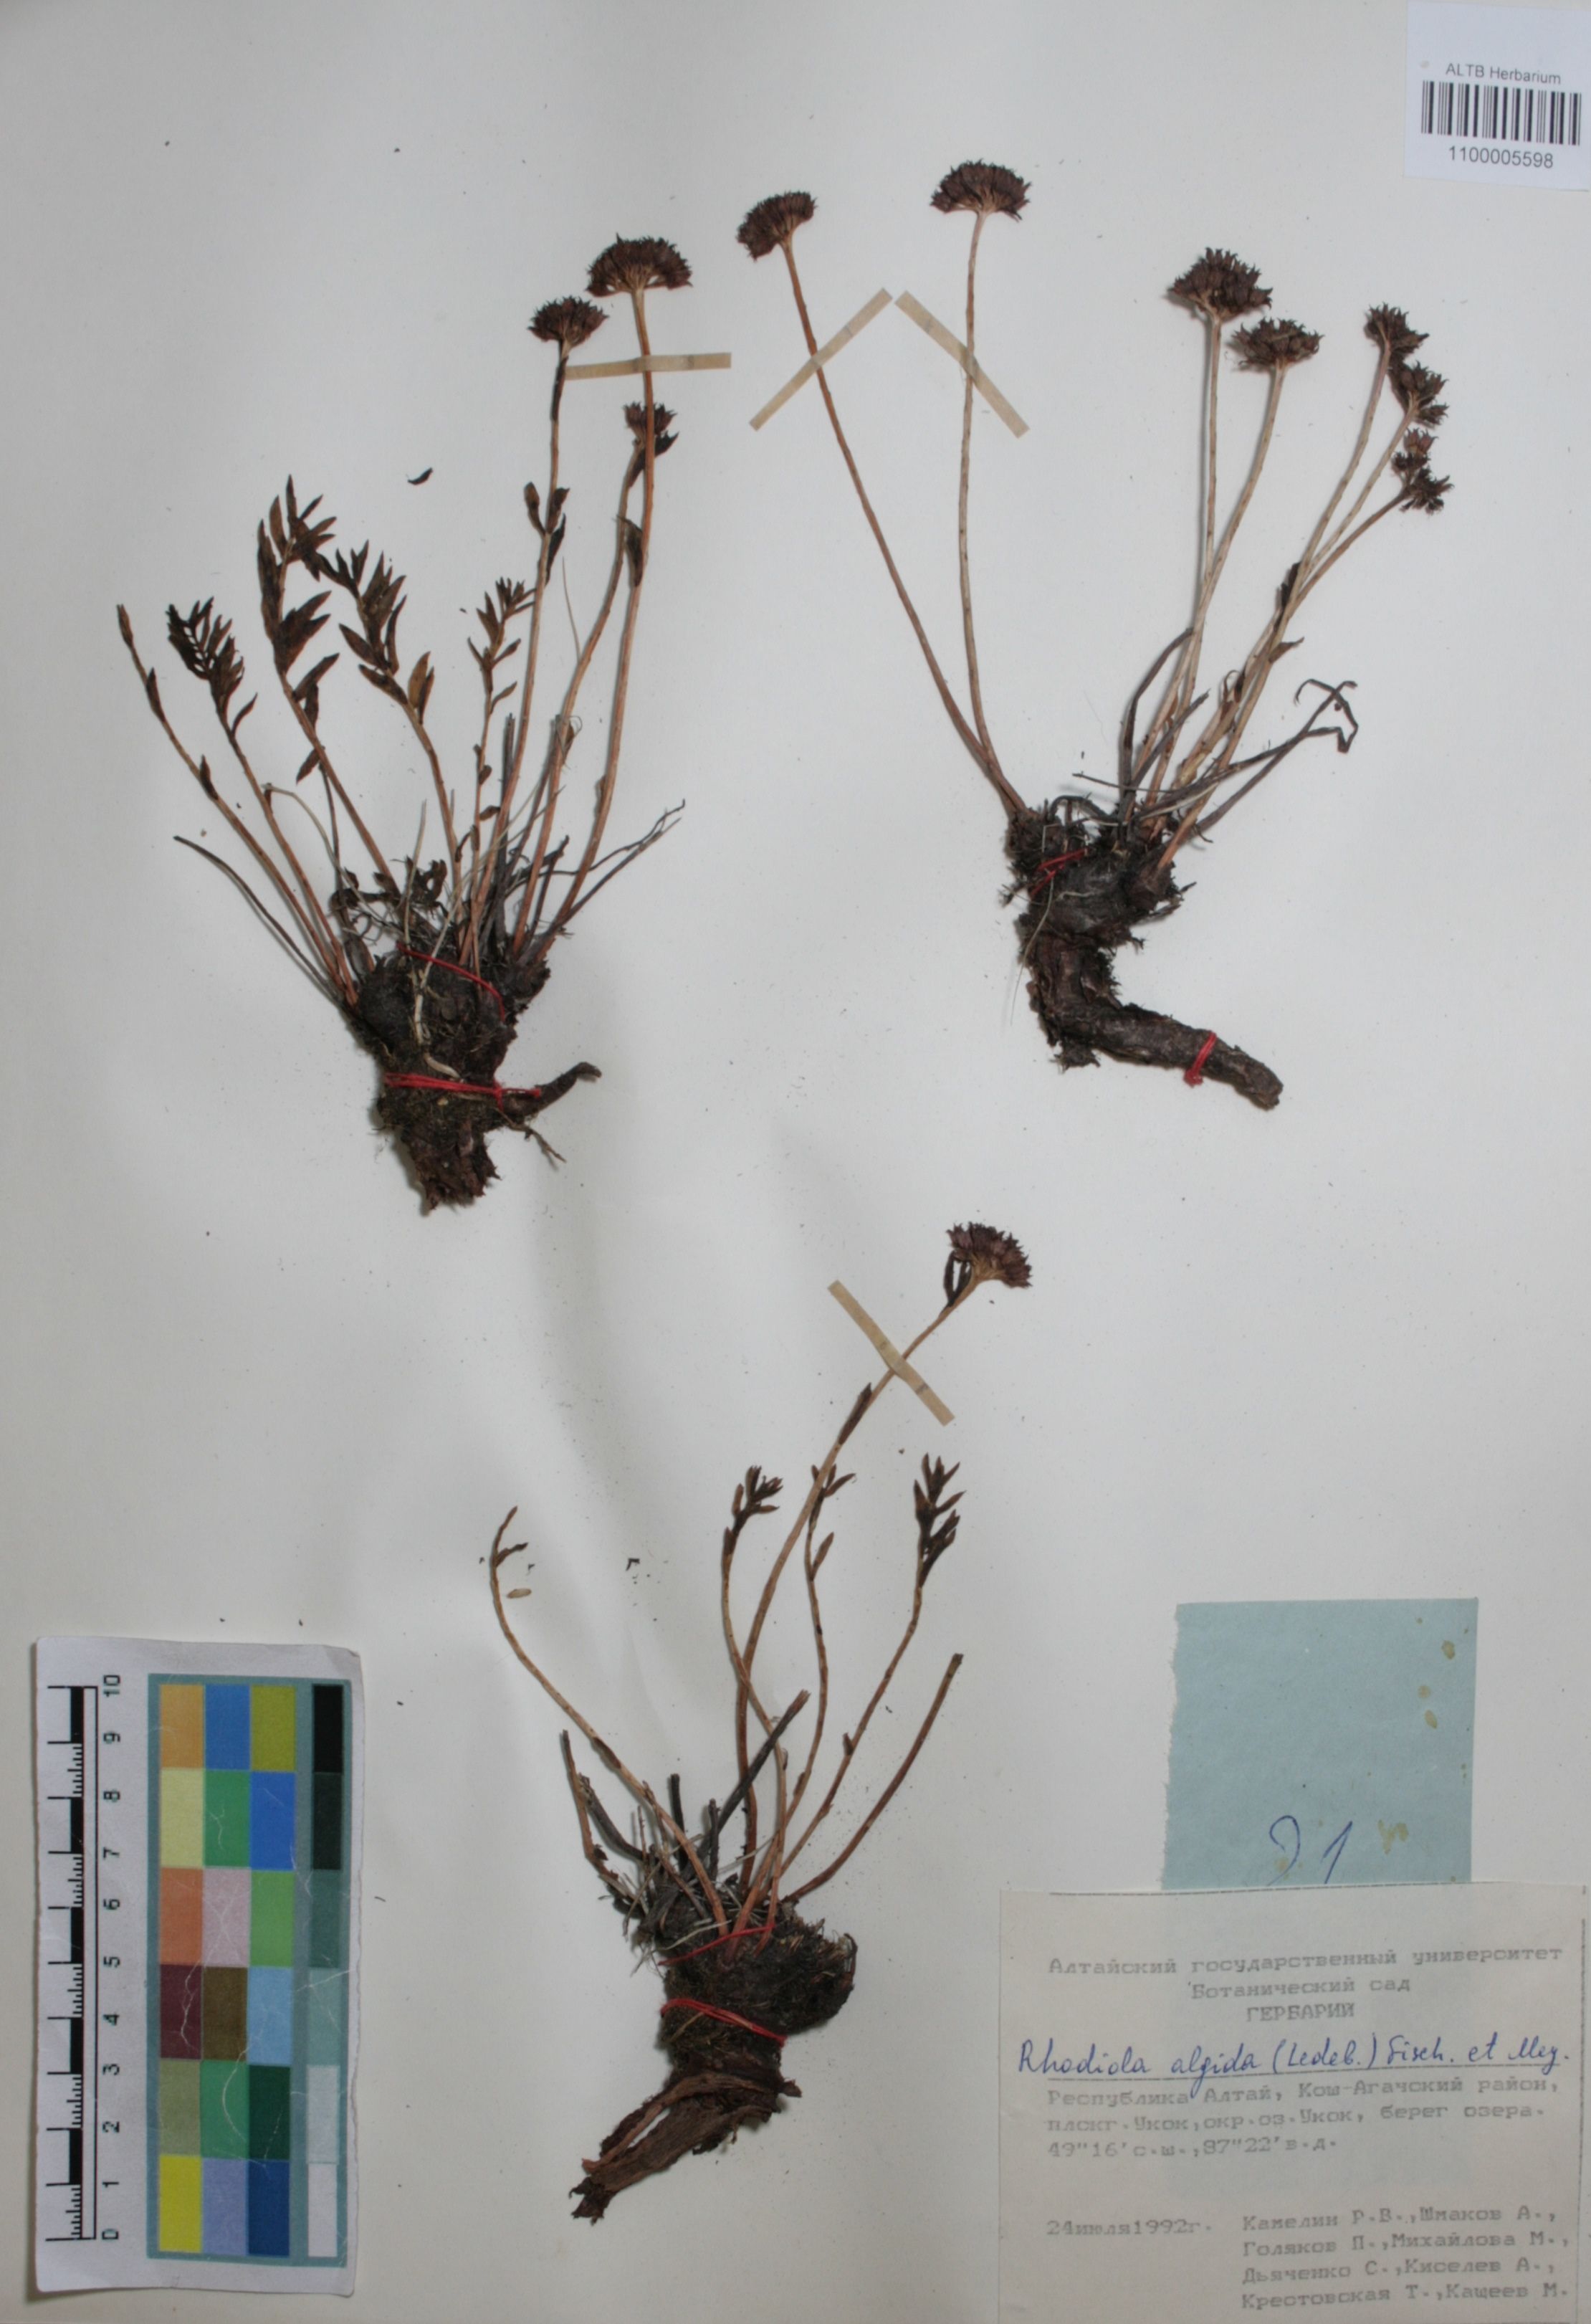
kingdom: Plantae
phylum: Tracheophyta
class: Magnoliopsida
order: Saxifragales
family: Crassulaceae
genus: Rhodiola
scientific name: Rhodiola algida
